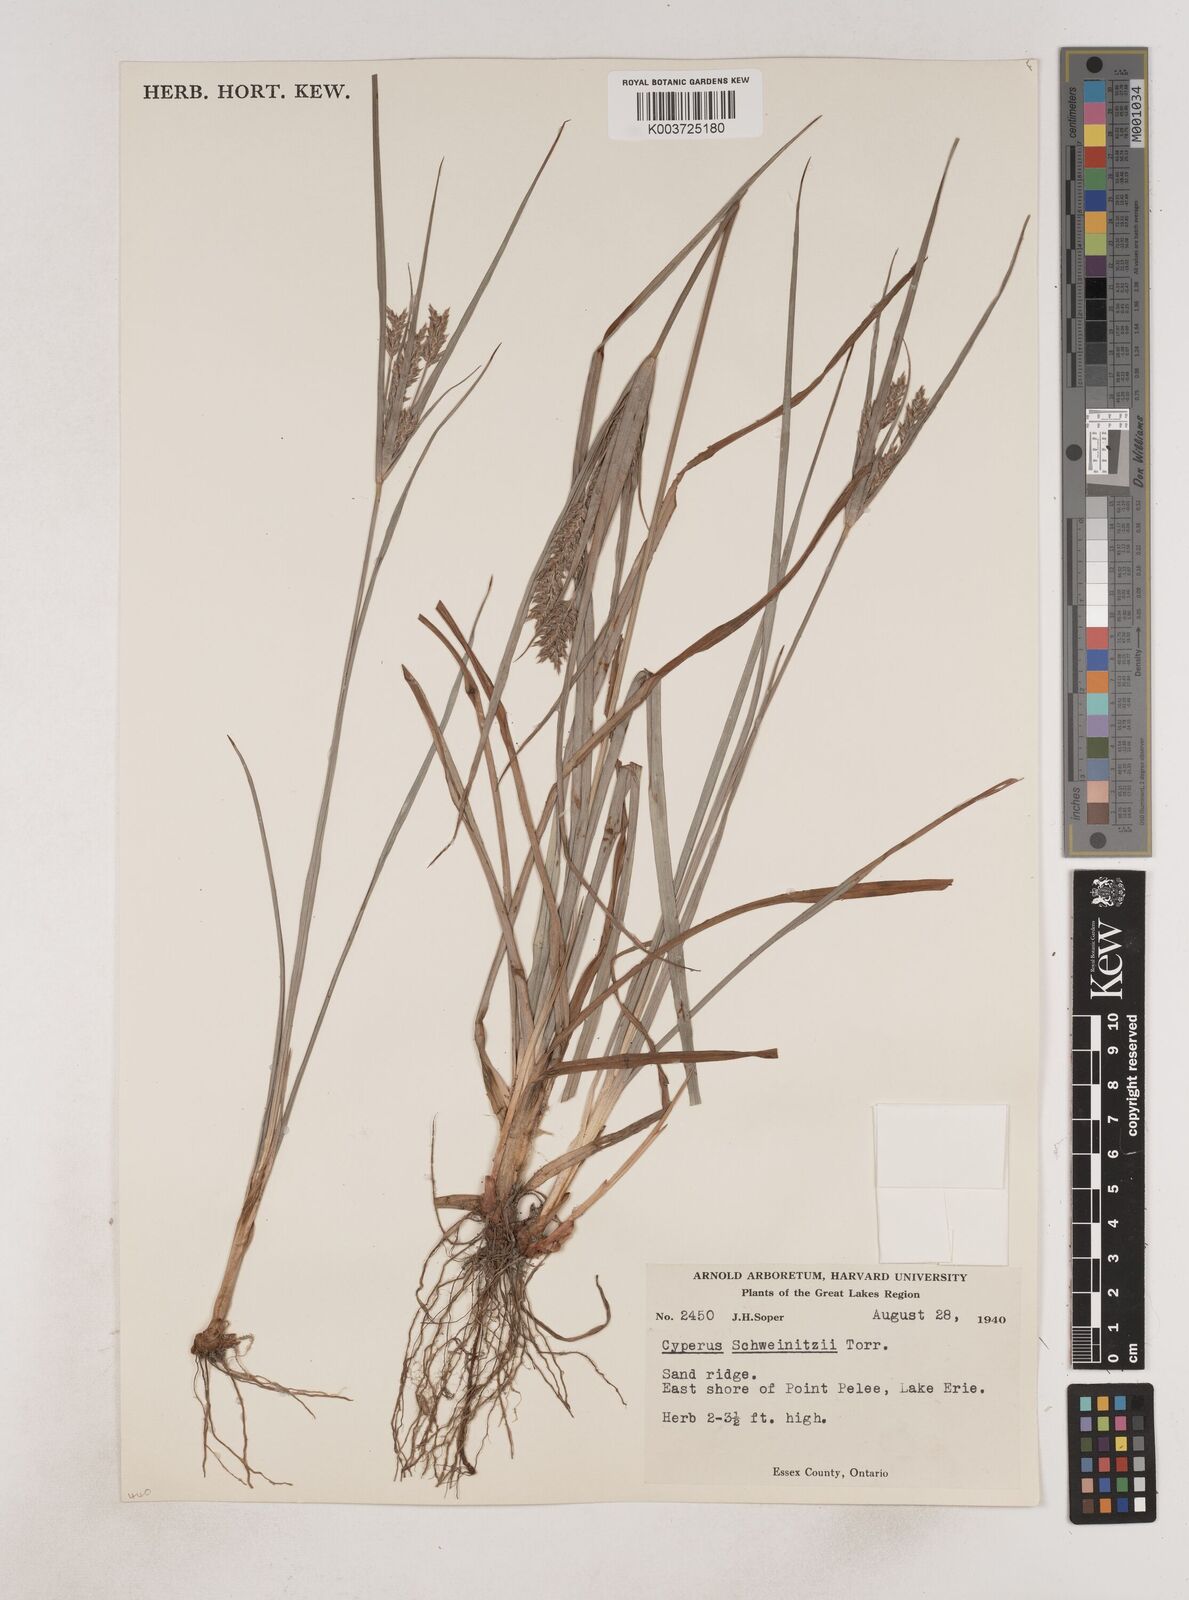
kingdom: Plantae
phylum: Tracheophyta
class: Liliopsida
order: Poales
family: Cyperaceae
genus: Cyperus
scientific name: Cyperus schweinitzii
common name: Schweinitz's cyperus
